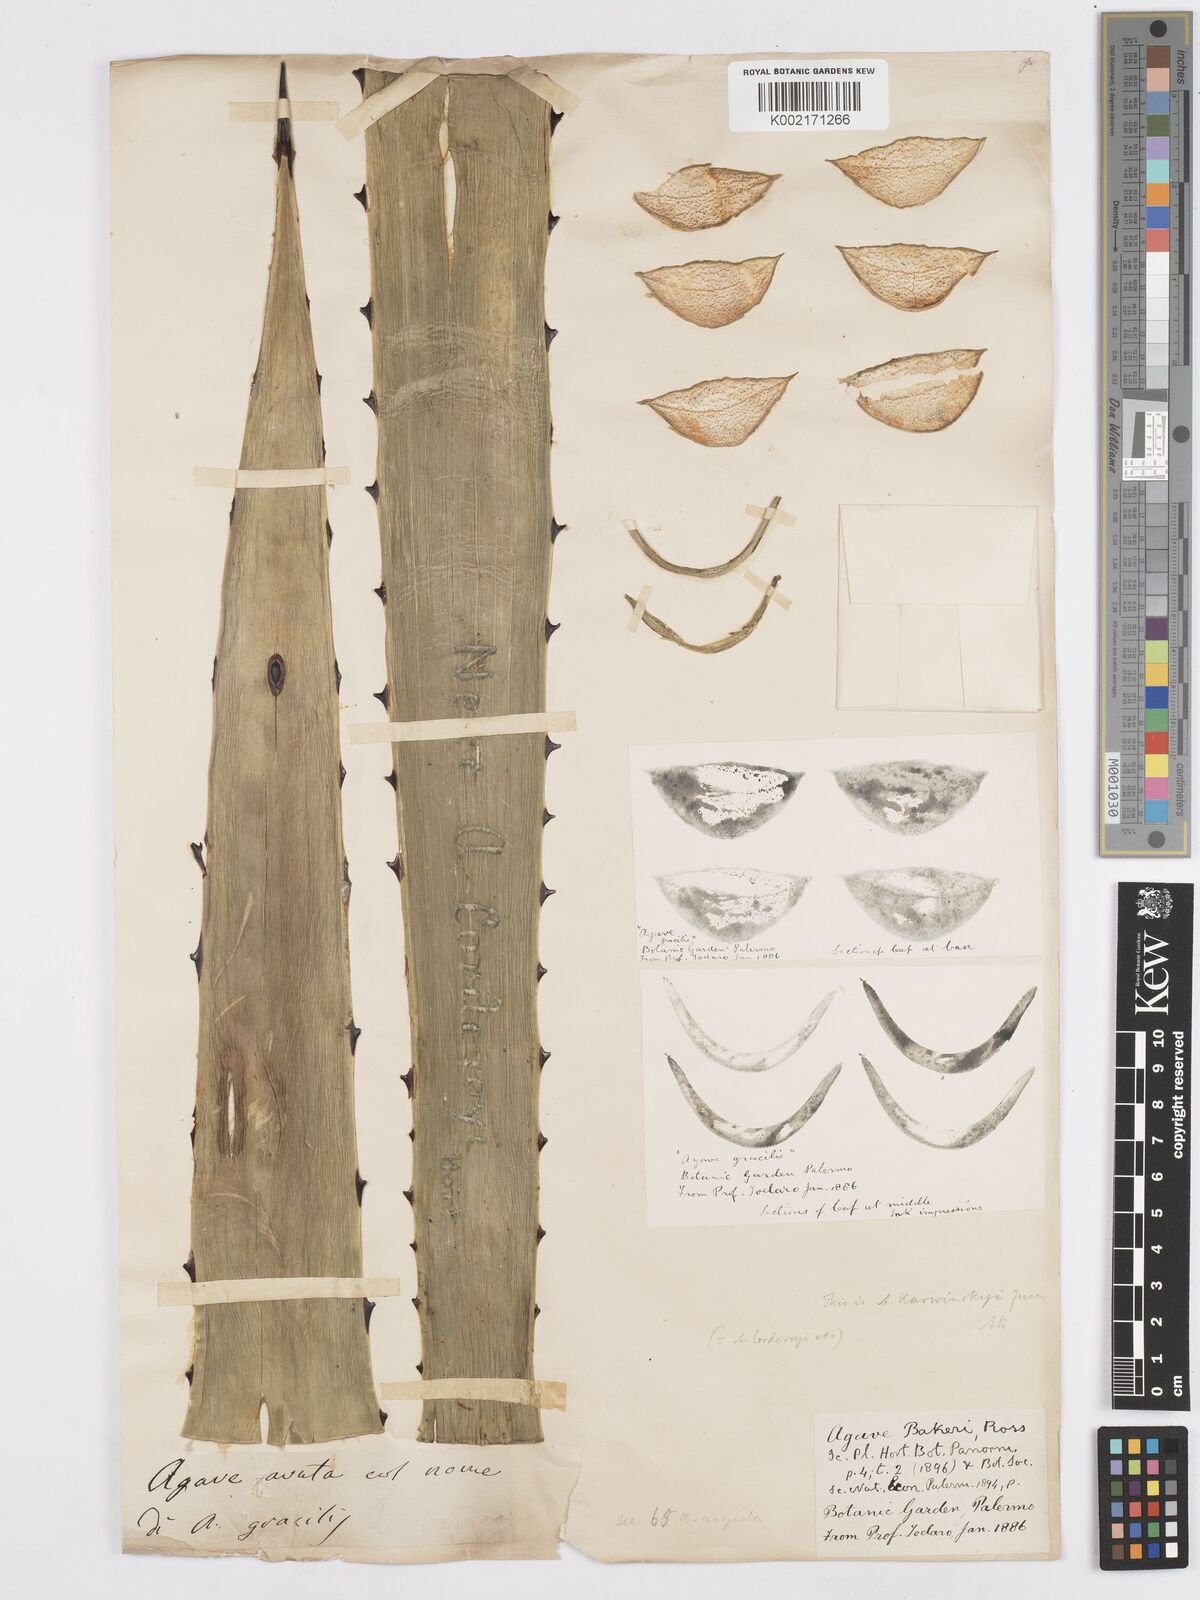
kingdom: Plantae
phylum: Tracheophyta
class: Liliopsida
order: Asparagales
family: Asparagaceae
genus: Agave
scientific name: Agave karwinskii
